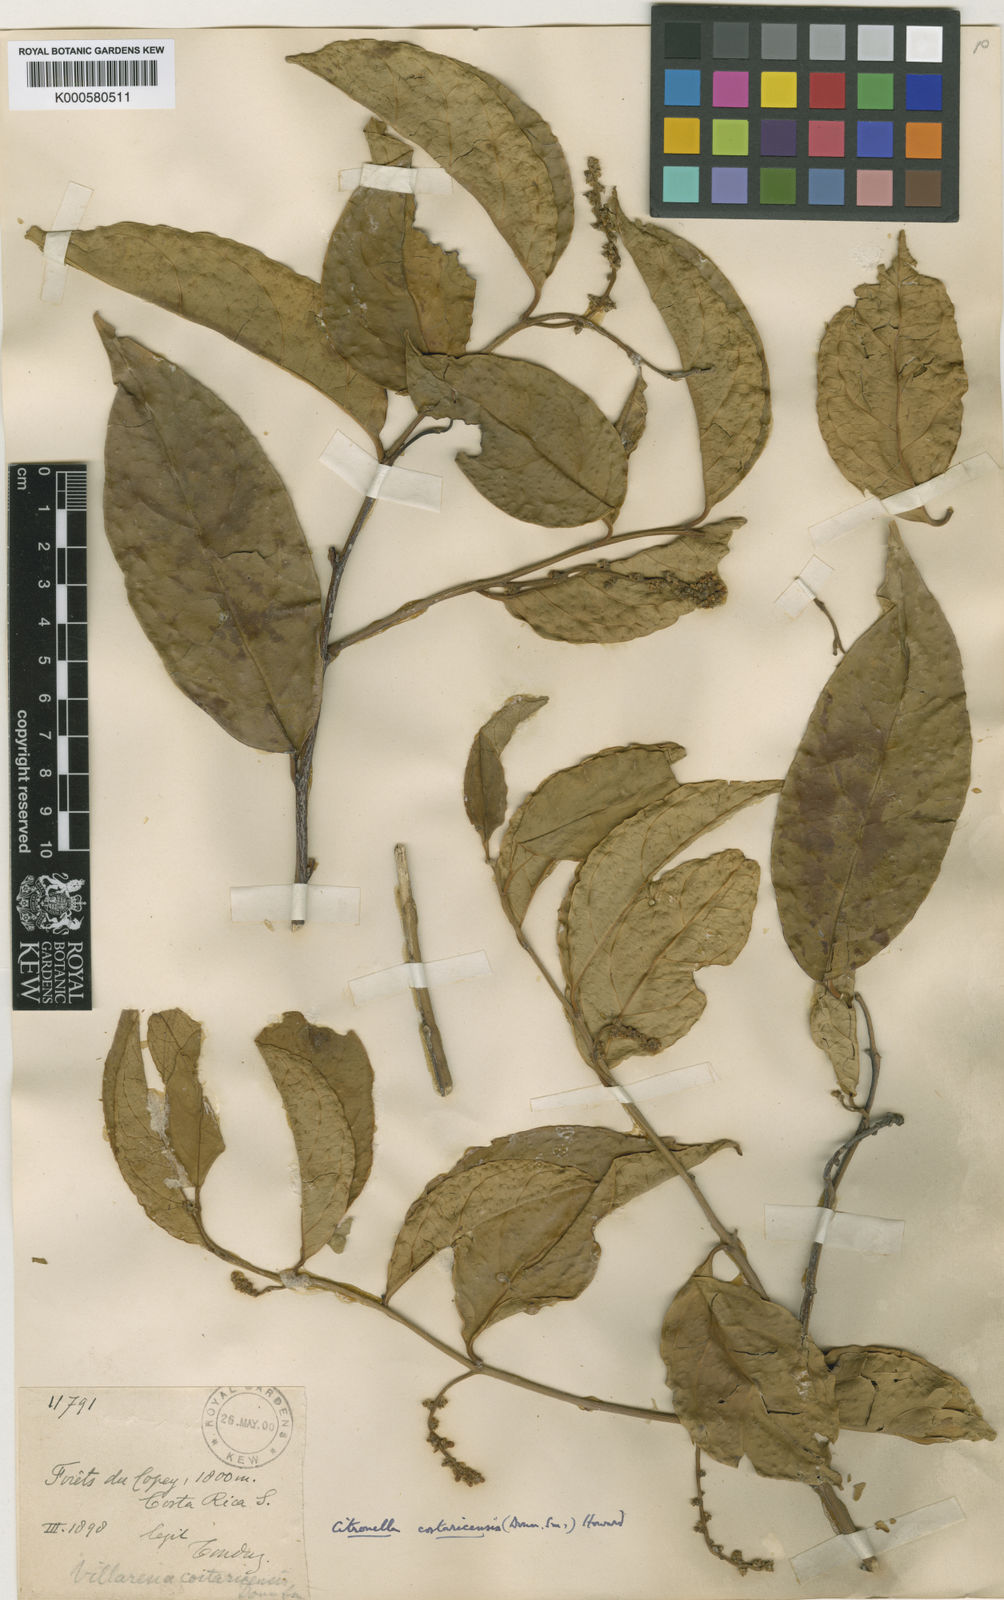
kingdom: Plantae
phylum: Tracheophyta
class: Magnoliopsida
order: Cardiopteridales
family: Cardiopteridaceae
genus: Citronella
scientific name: Citronella costaricensis
